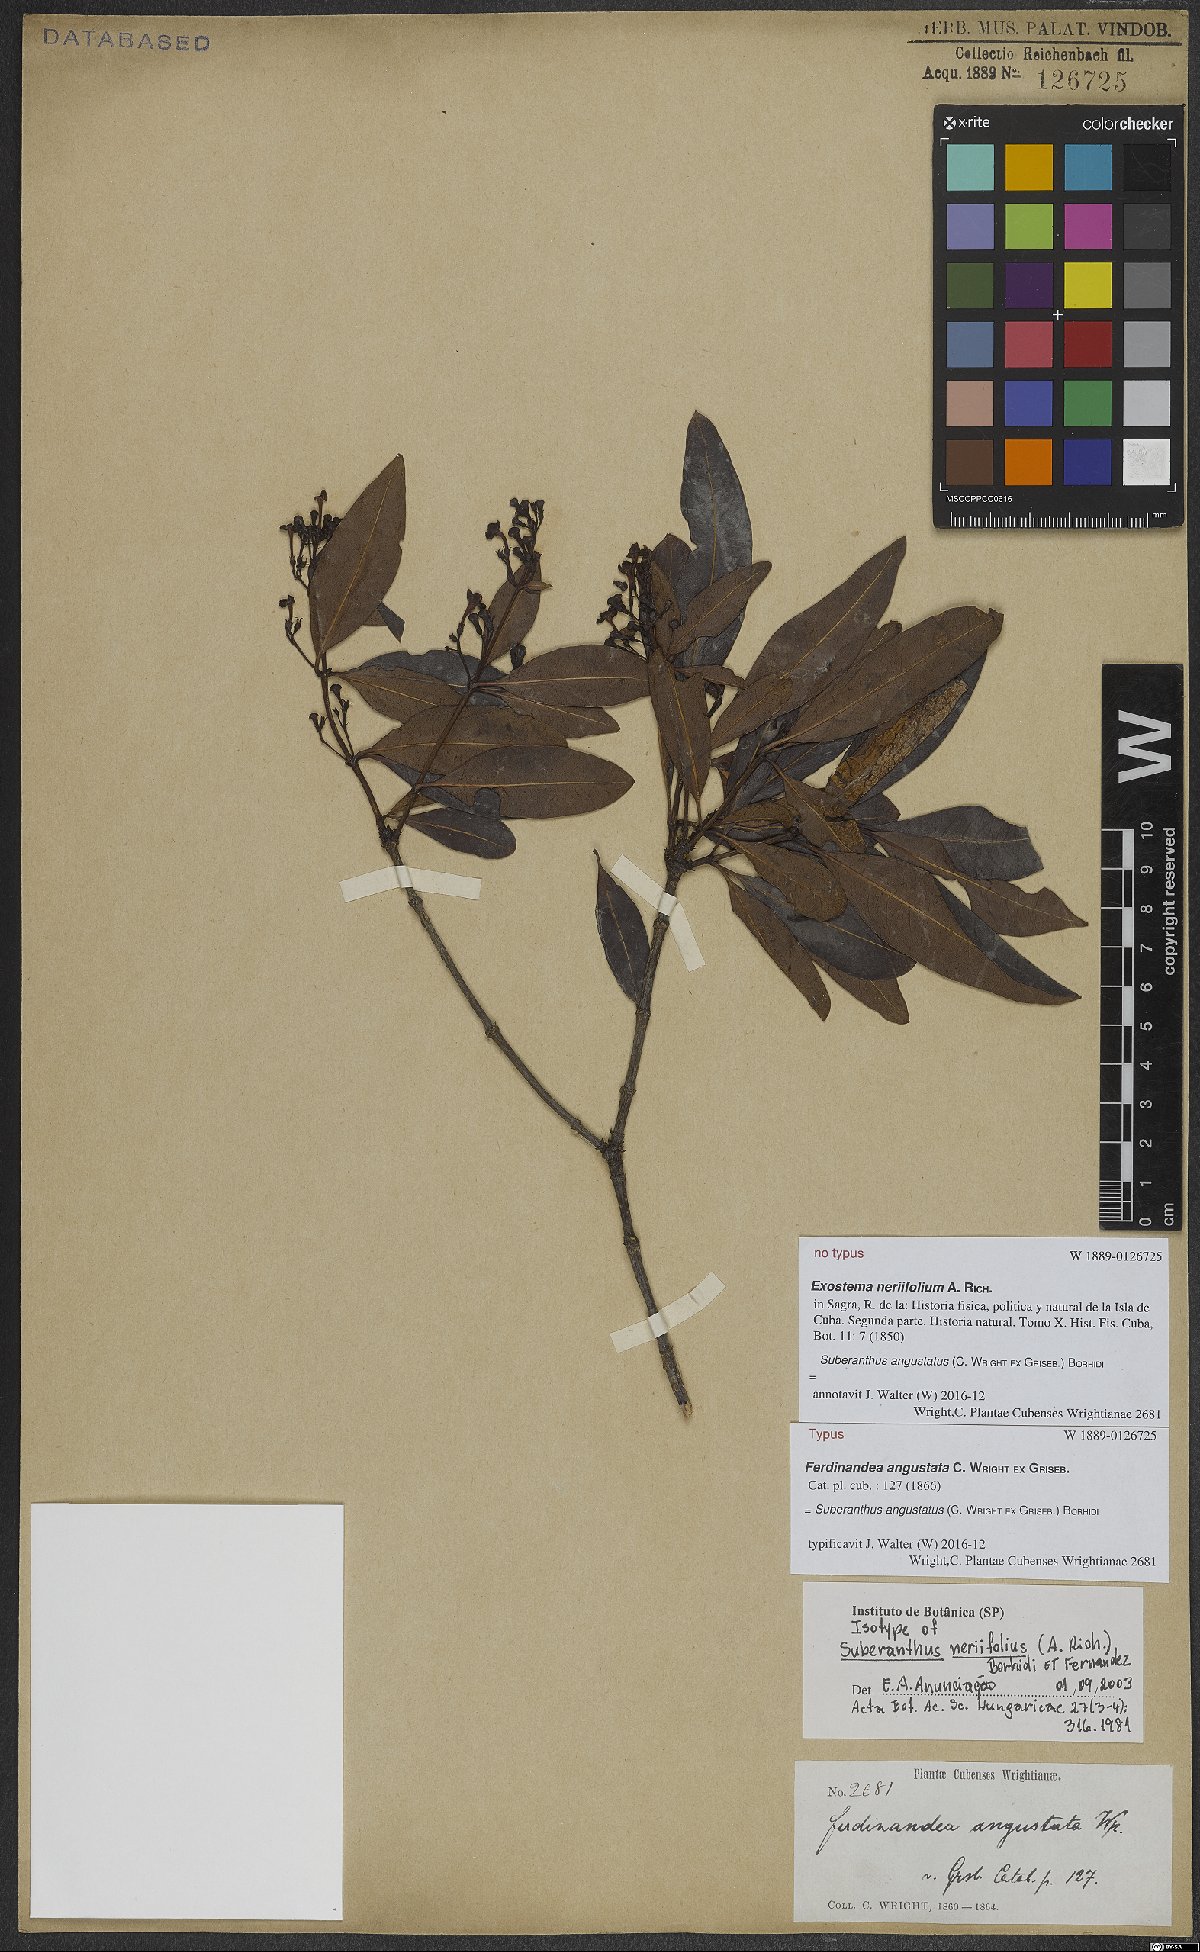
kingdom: Plantae
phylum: Tracheophyta
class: Magnoliopsida
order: Gentianales
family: Rubiaceae
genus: Suberanthus
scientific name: Suberanthus angustatus
